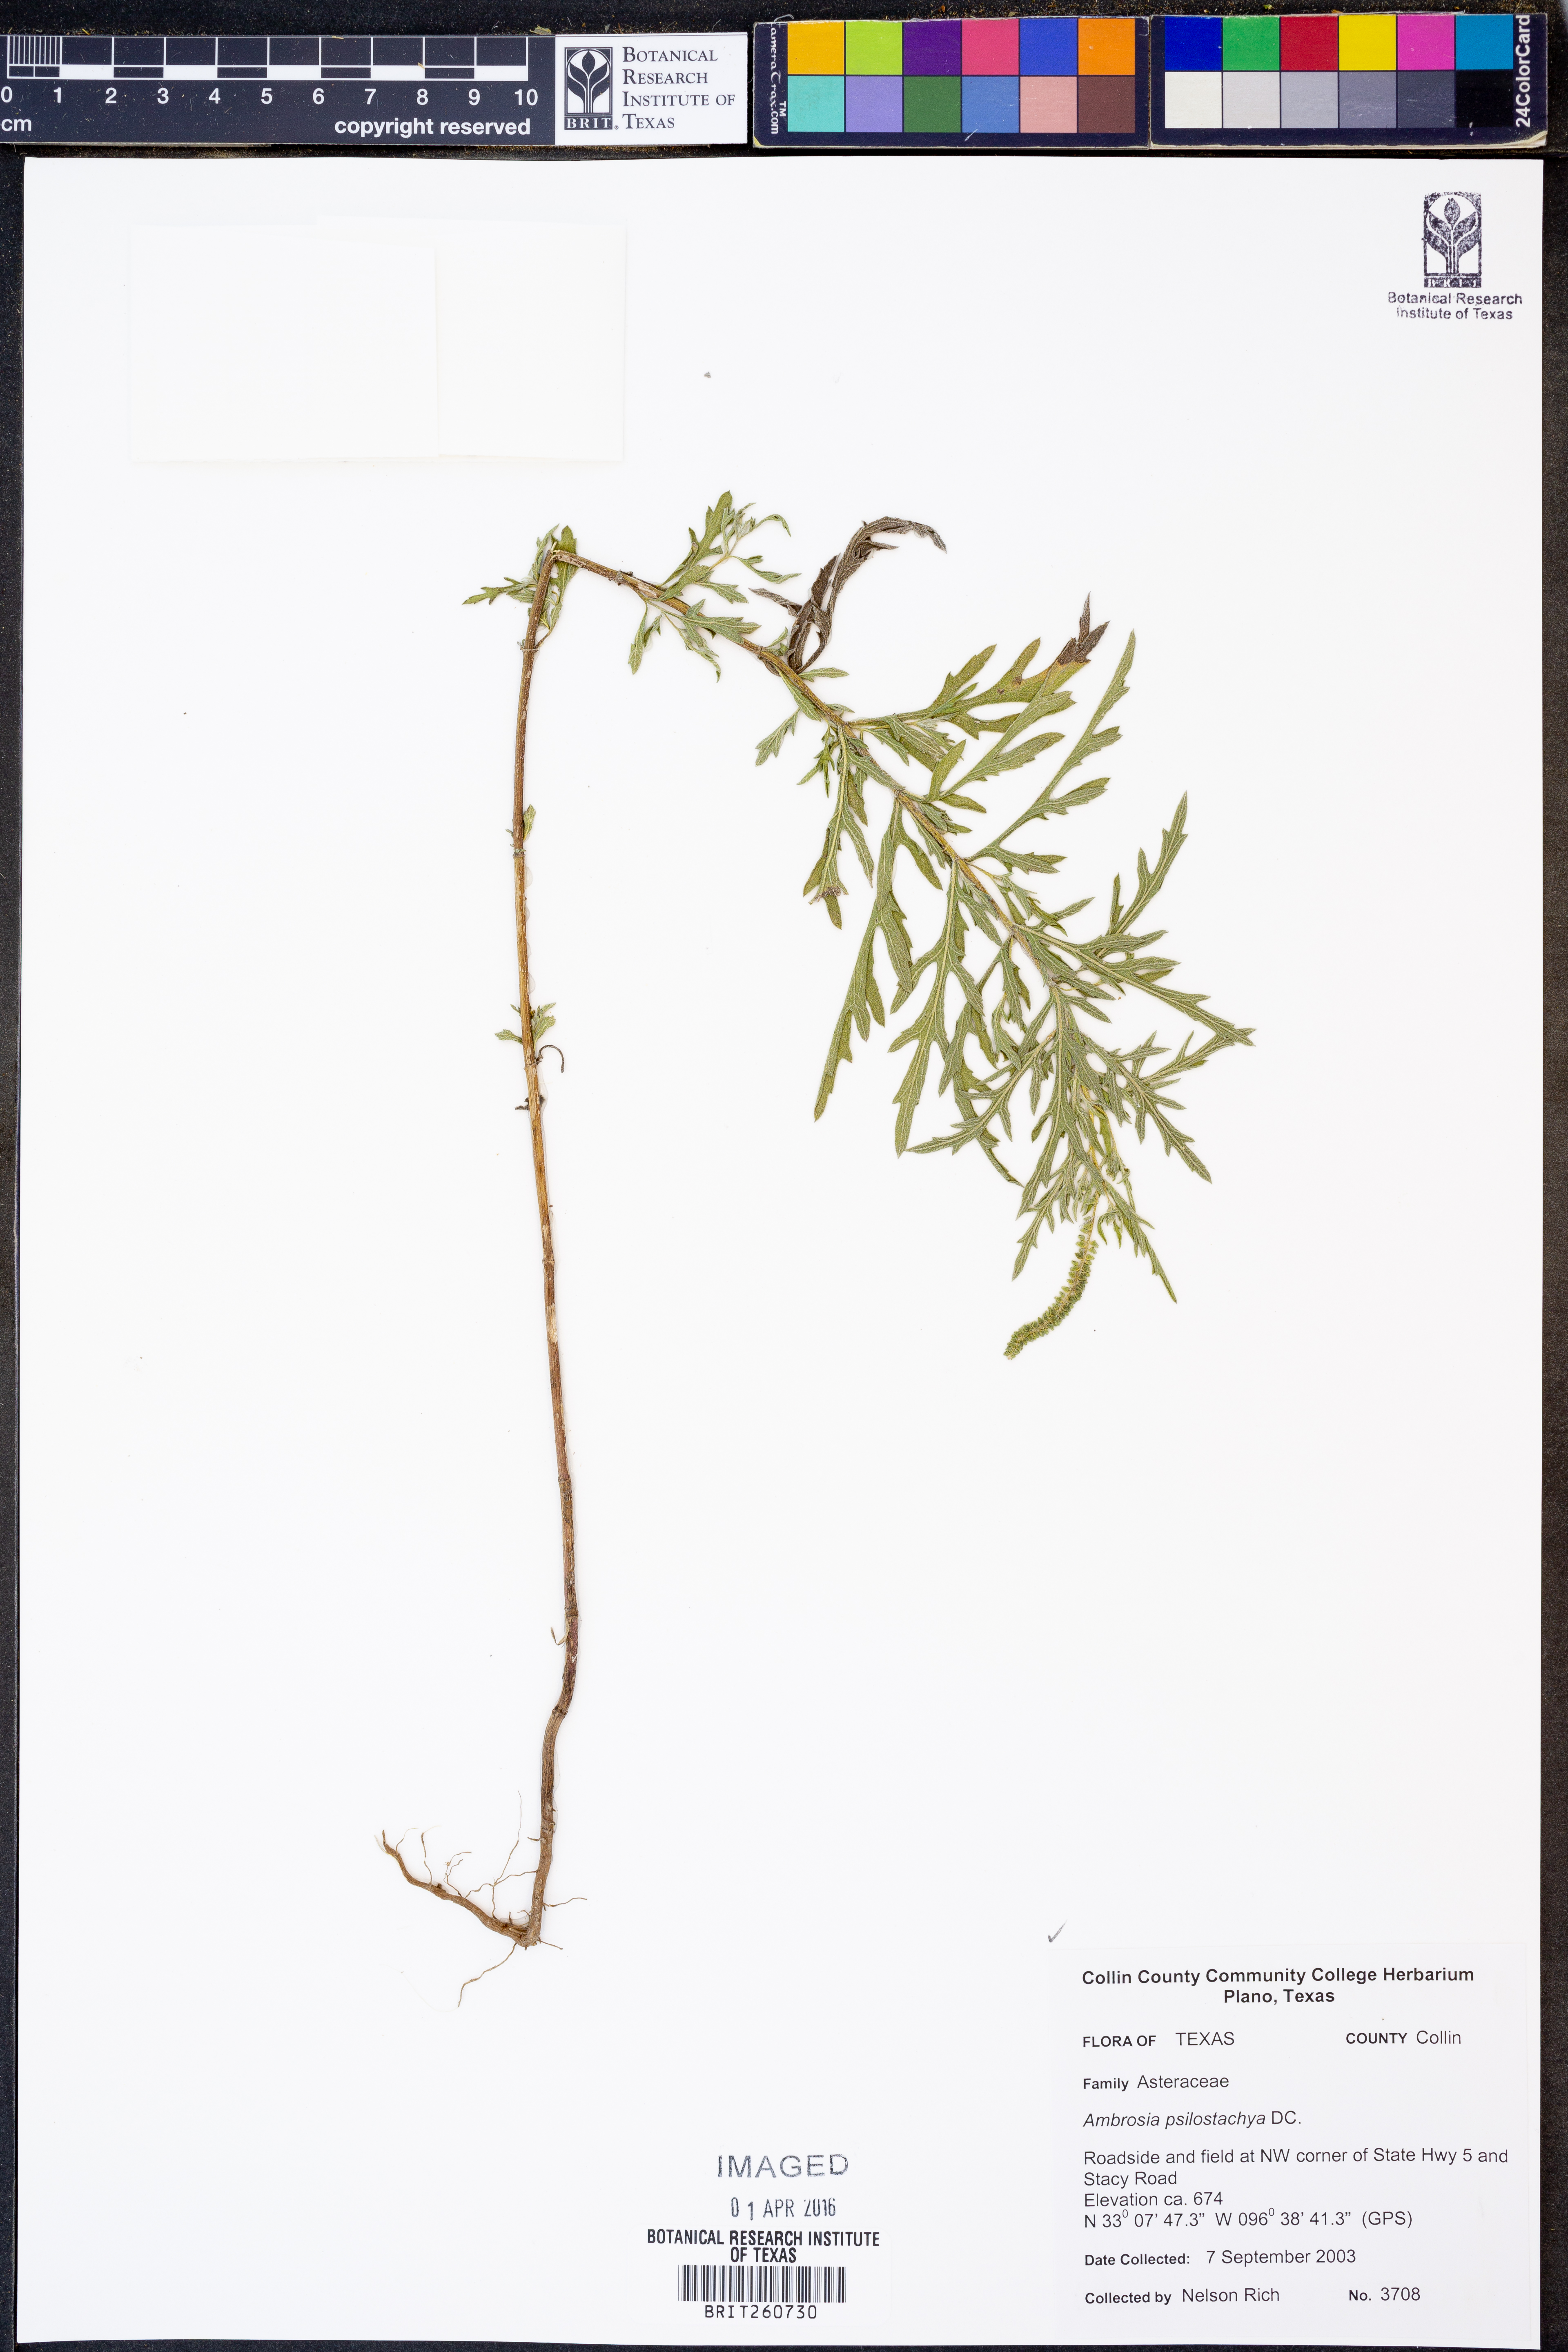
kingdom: Plantae
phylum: Tracheophyta
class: Magnoliopsida
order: Asterales
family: Asteraceae
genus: Ambrosia
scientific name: Ambrosia psilostachya
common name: Perennial ragweed
